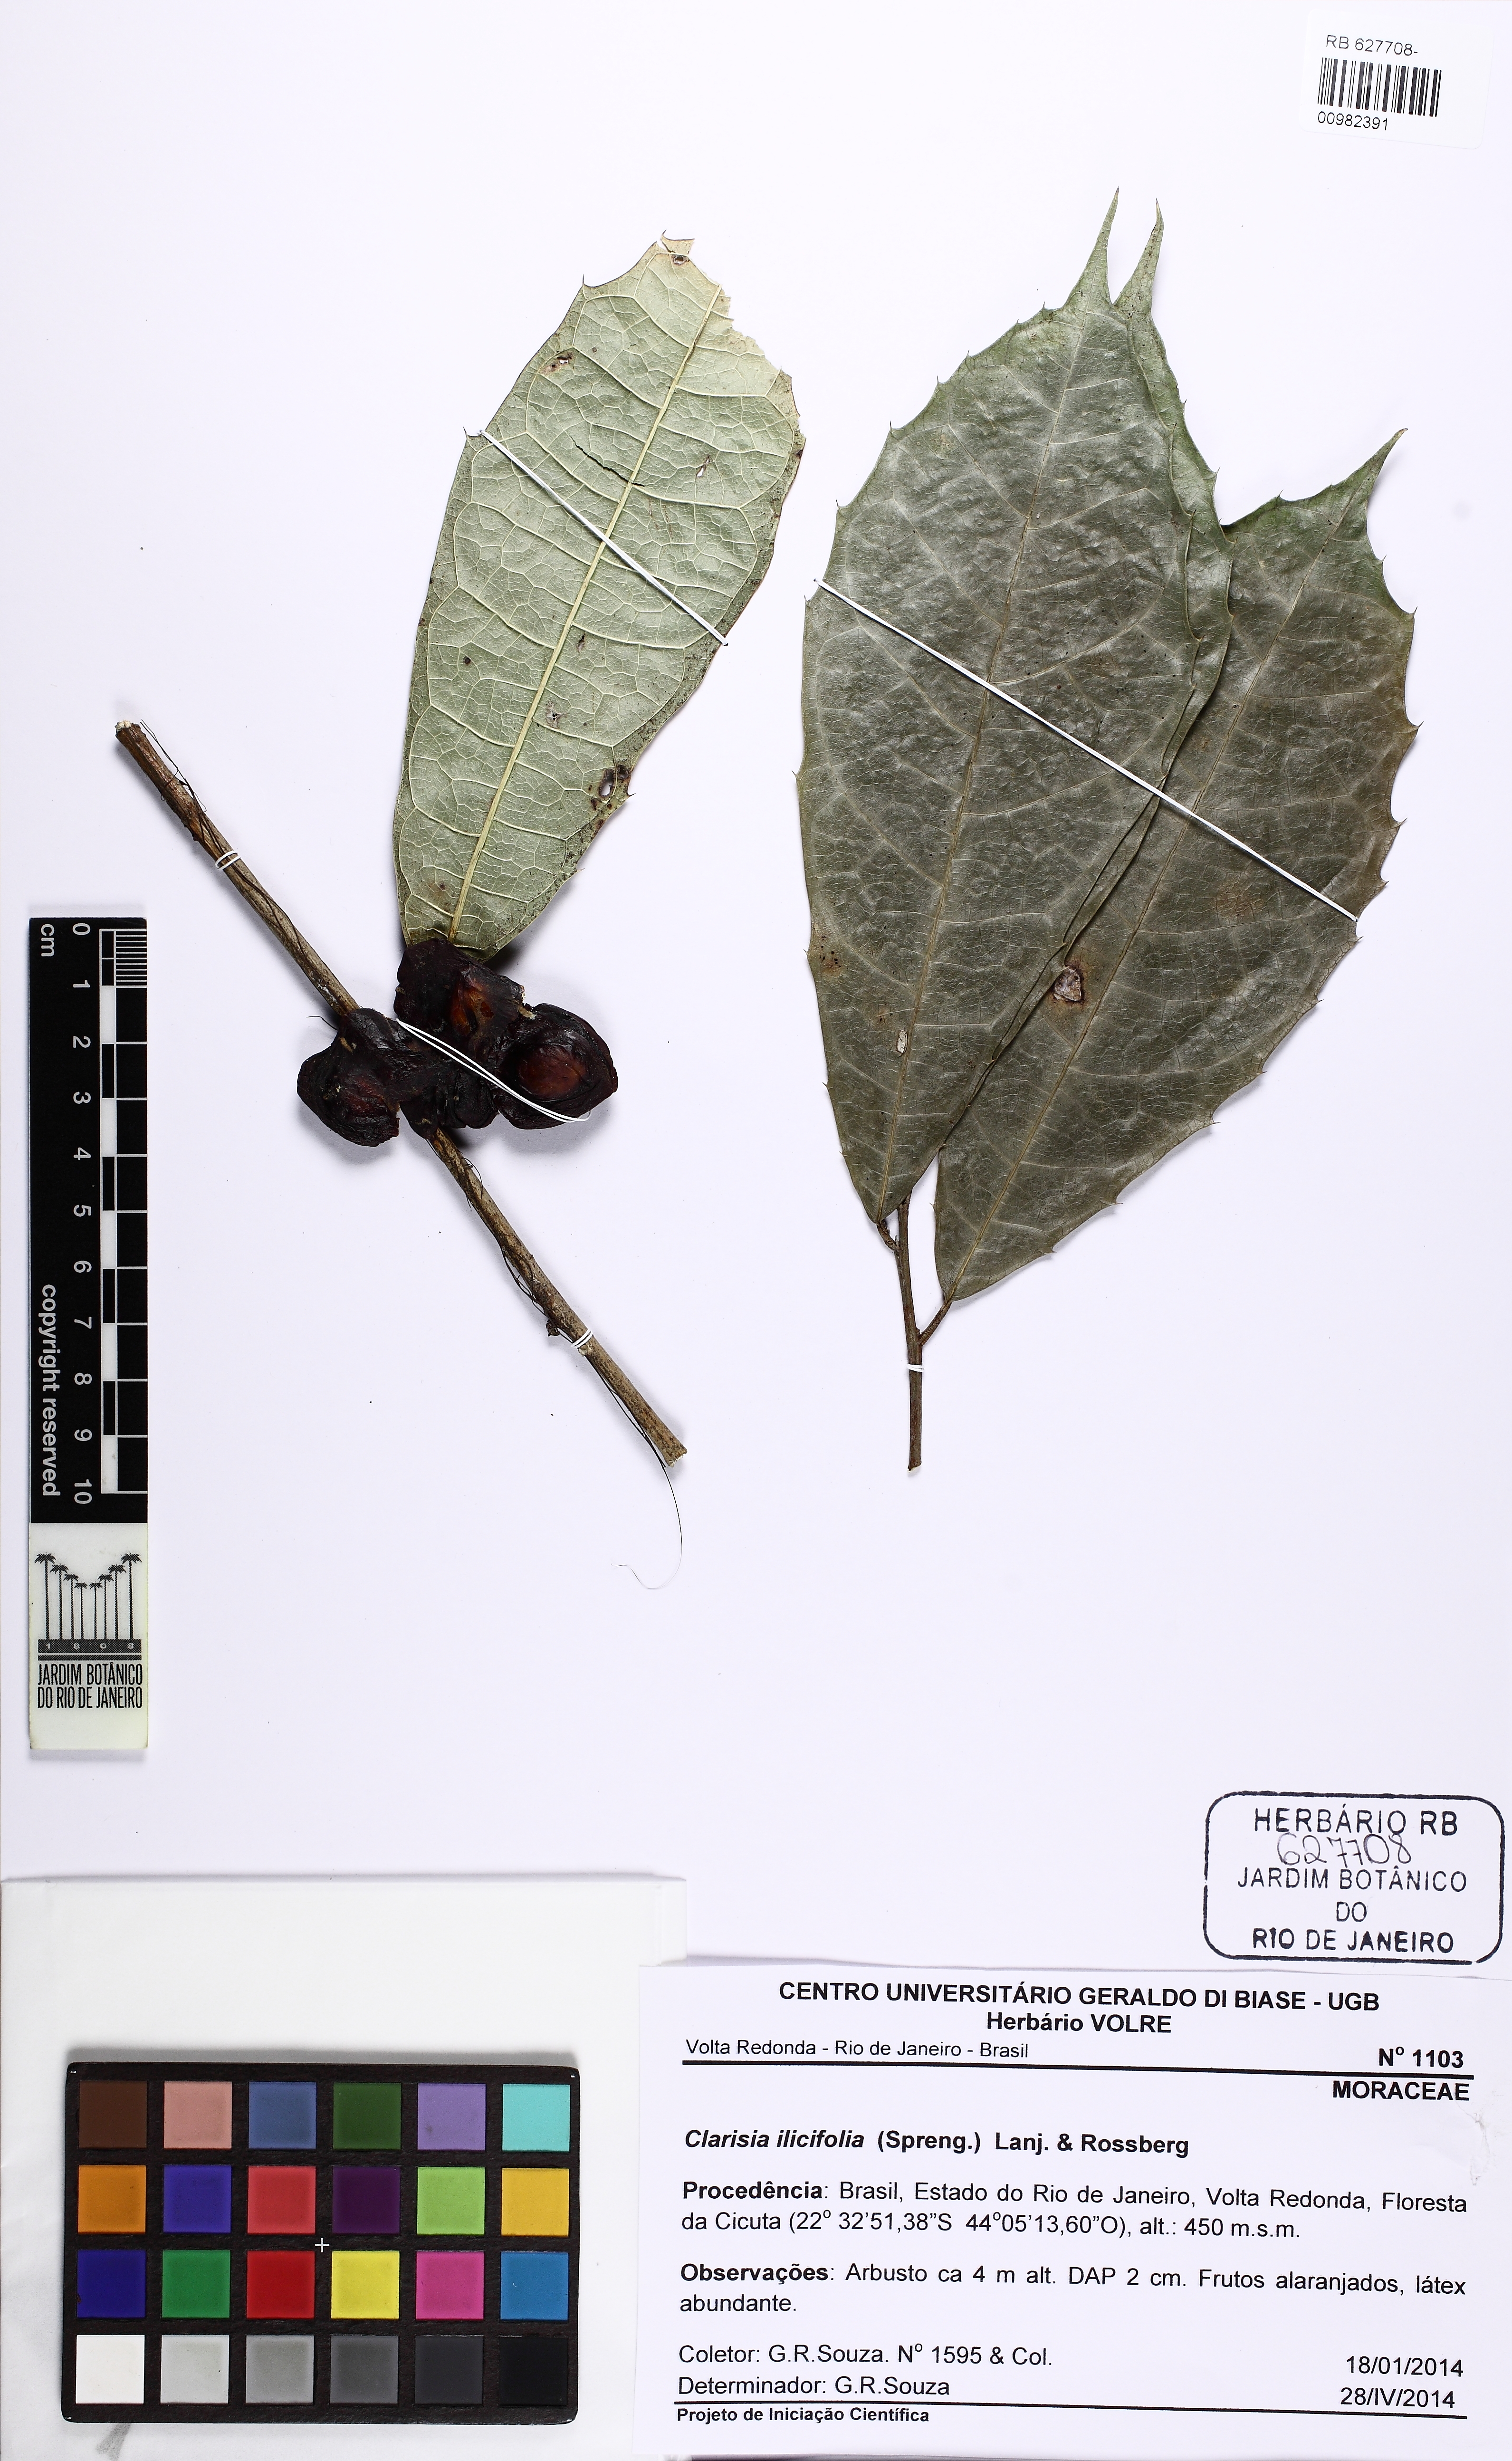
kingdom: Plantae
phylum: Tracheophyta
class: Magnoliopsida
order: Rosales
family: Moraceae
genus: Clarisia
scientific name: Clarisia ilicifolia
